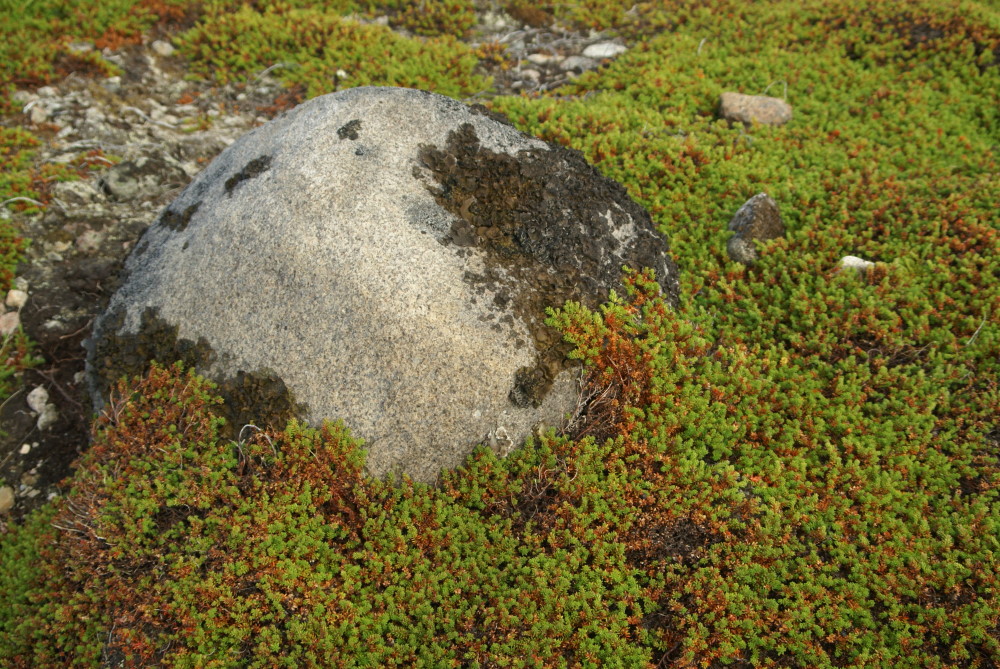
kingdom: Plantae
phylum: Tracheophyta
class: Magnoliopsida
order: Ericales
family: Ericaceae
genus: Empetrum
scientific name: Empetrum hermaphroditum
